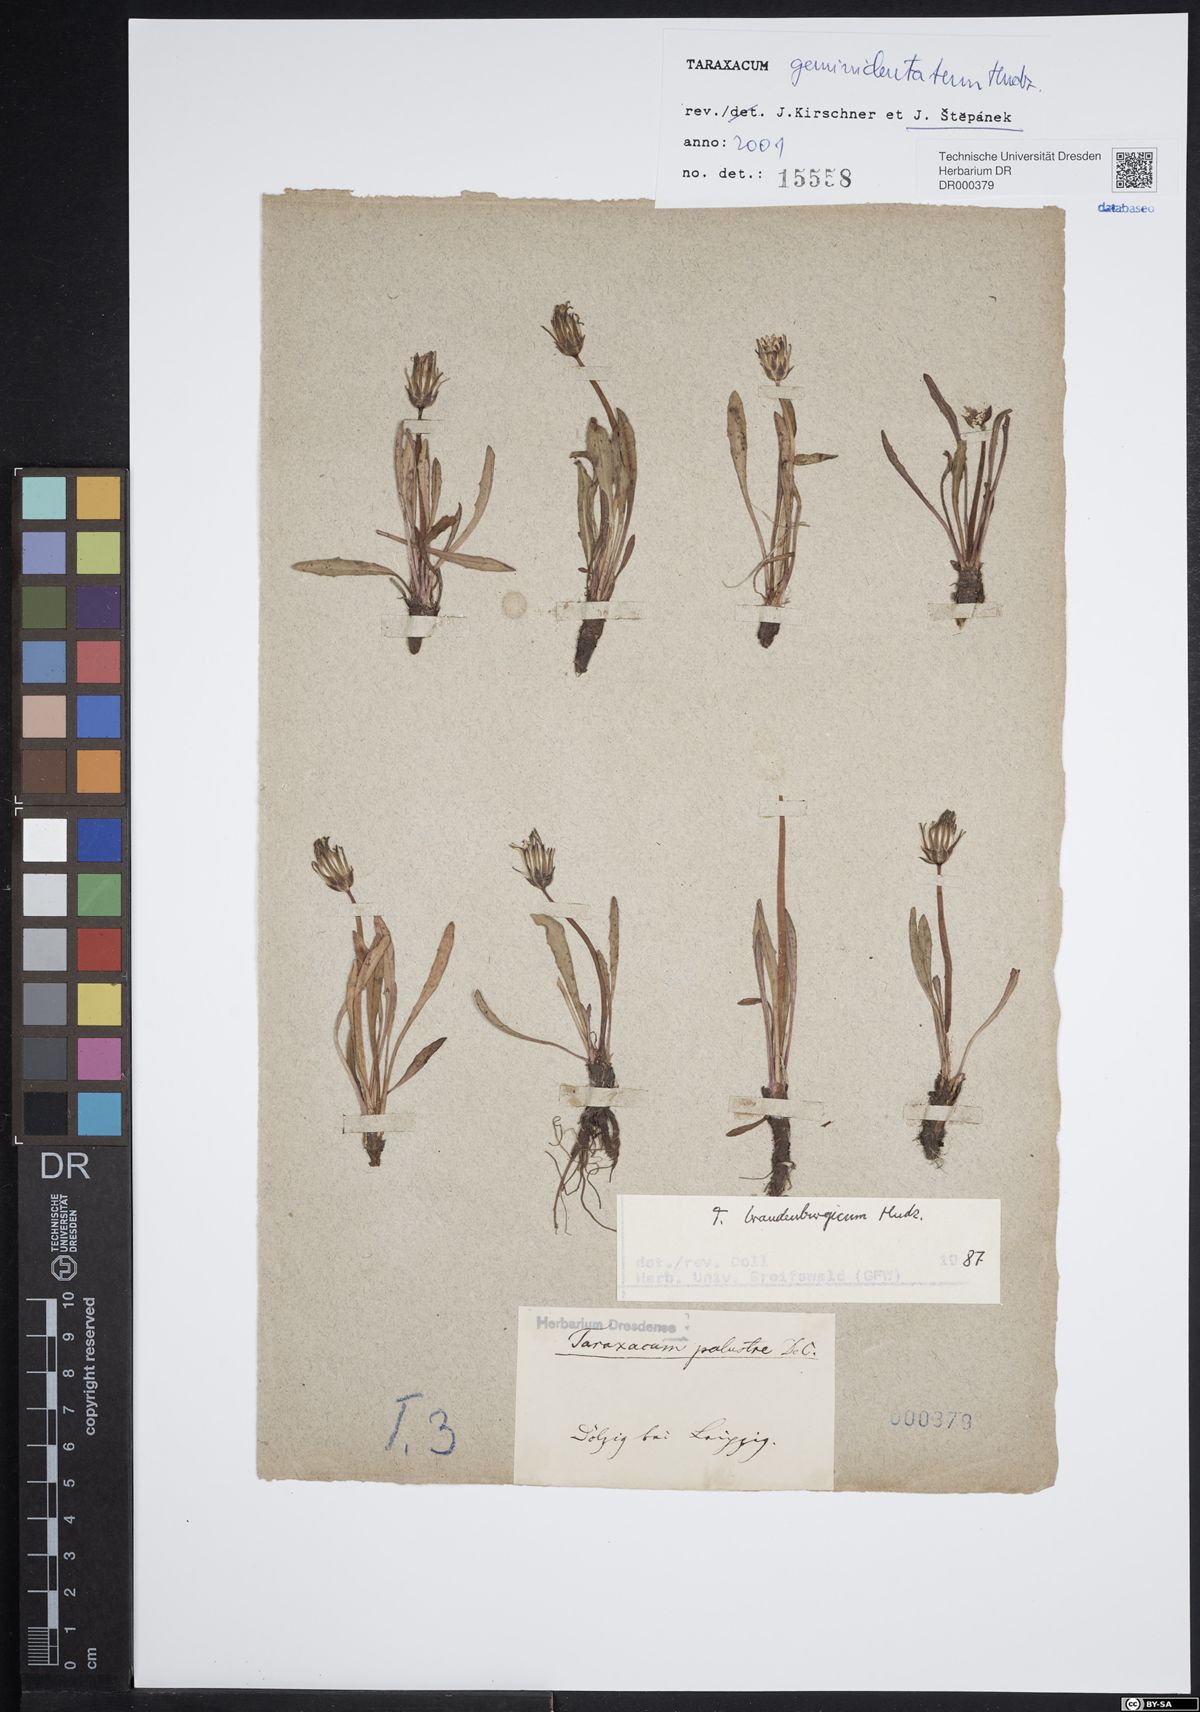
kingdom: Plantae
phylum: Tracheophyta
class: Magnoliopsida
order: Asterales
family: Asteraceae
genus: Taraxacum
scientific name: Taraxacum geminidentatum
